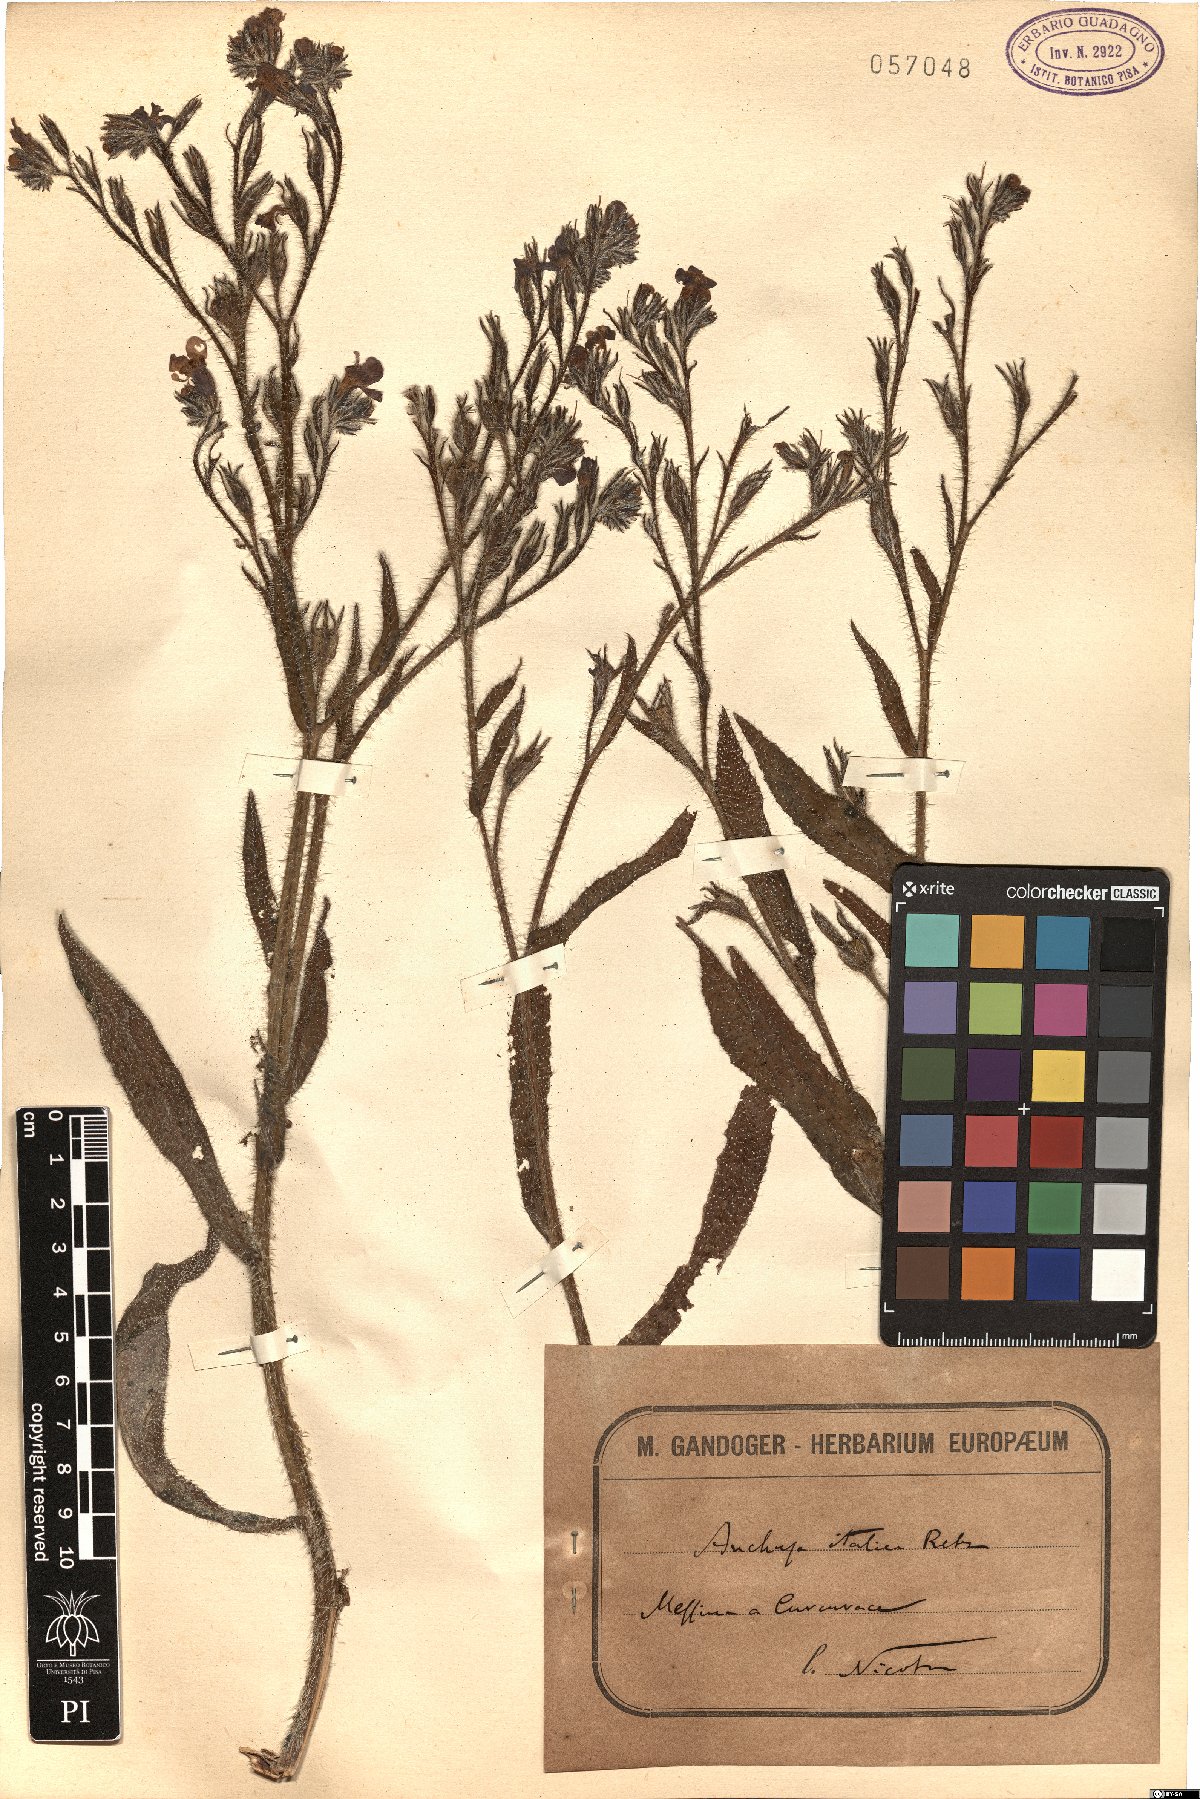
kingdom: Plantae
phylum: Tracheophyta
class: Magnoliopsida
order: Boraginales
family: Boraginaceae
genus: Anchusa
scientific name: Anchusa azurea
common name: Garden anchusa
